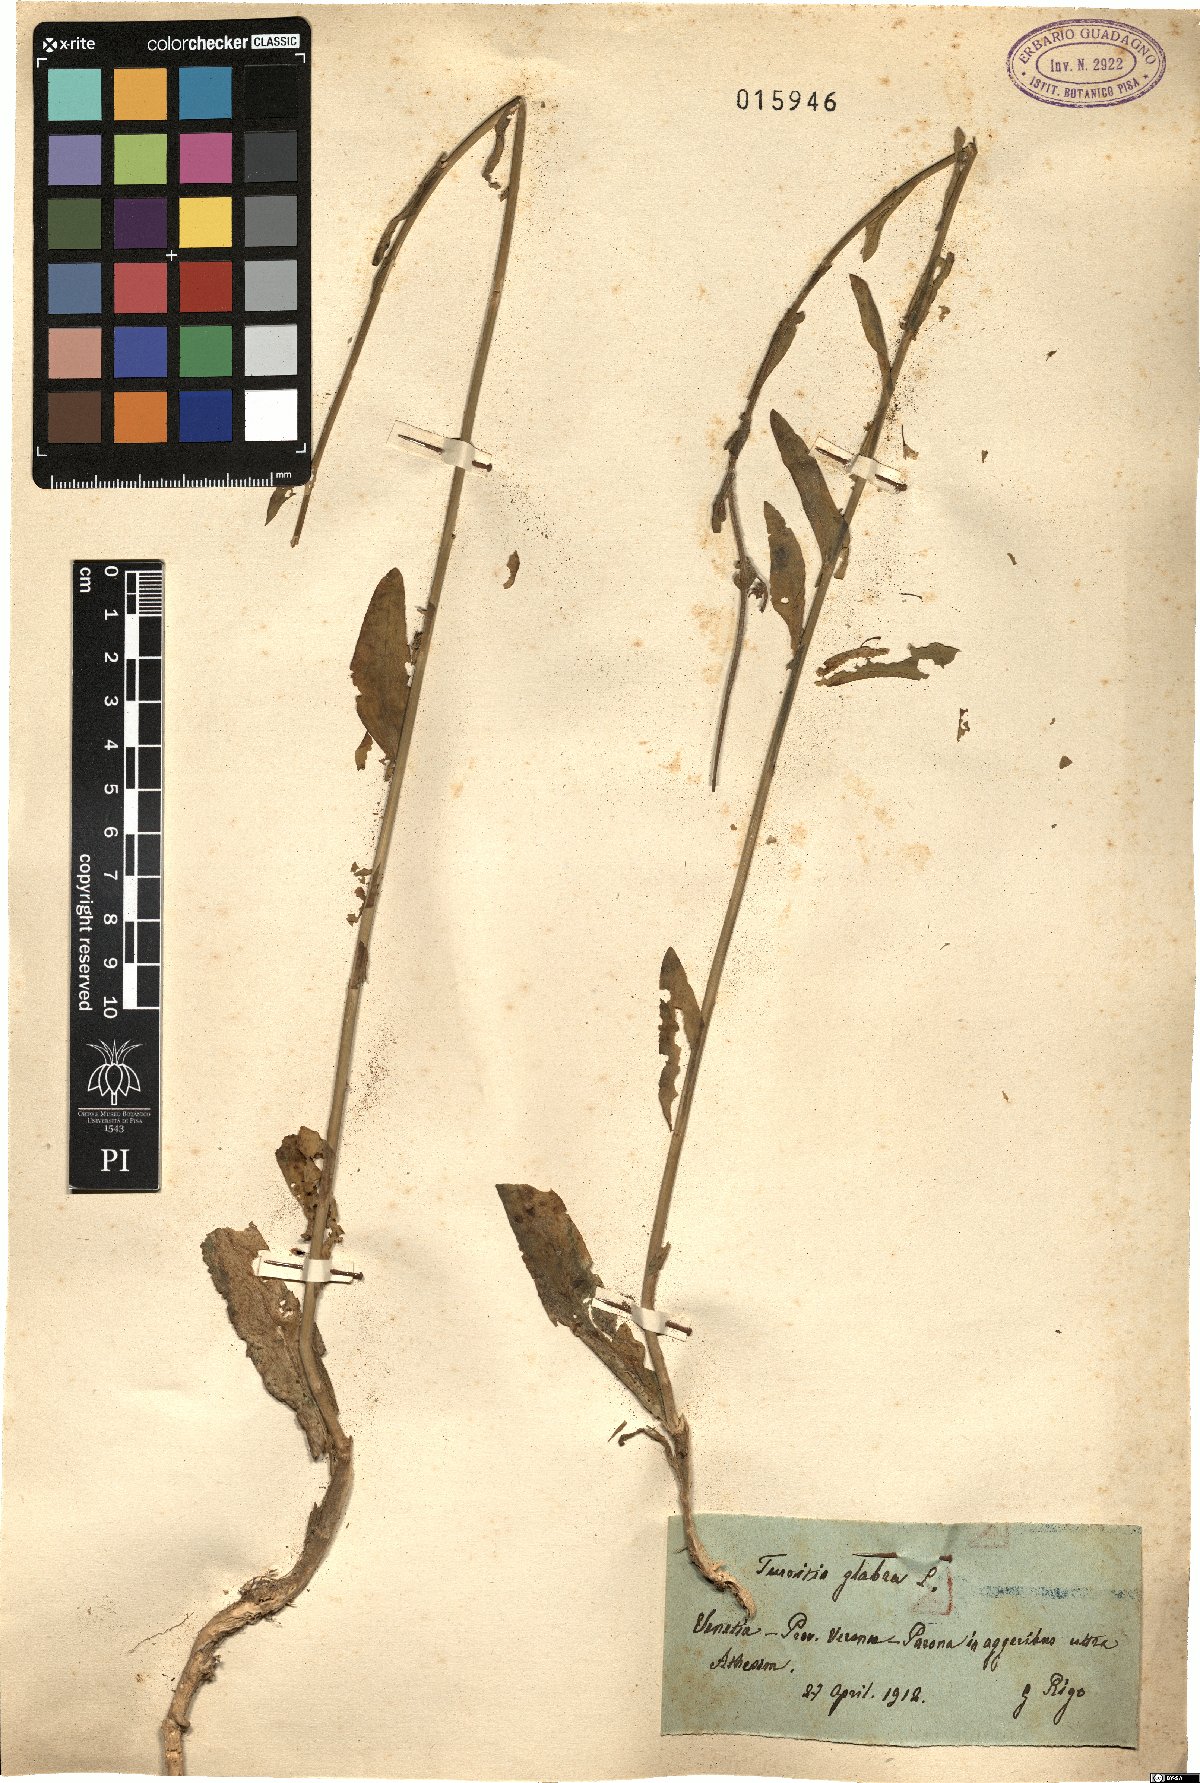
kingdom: Plantae
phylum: Tracheophyta
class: Magnoliopsida
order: Brassicales
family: Brassicaceae
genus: Turritis
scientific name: Turritis glabra
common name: Tower rockcress
